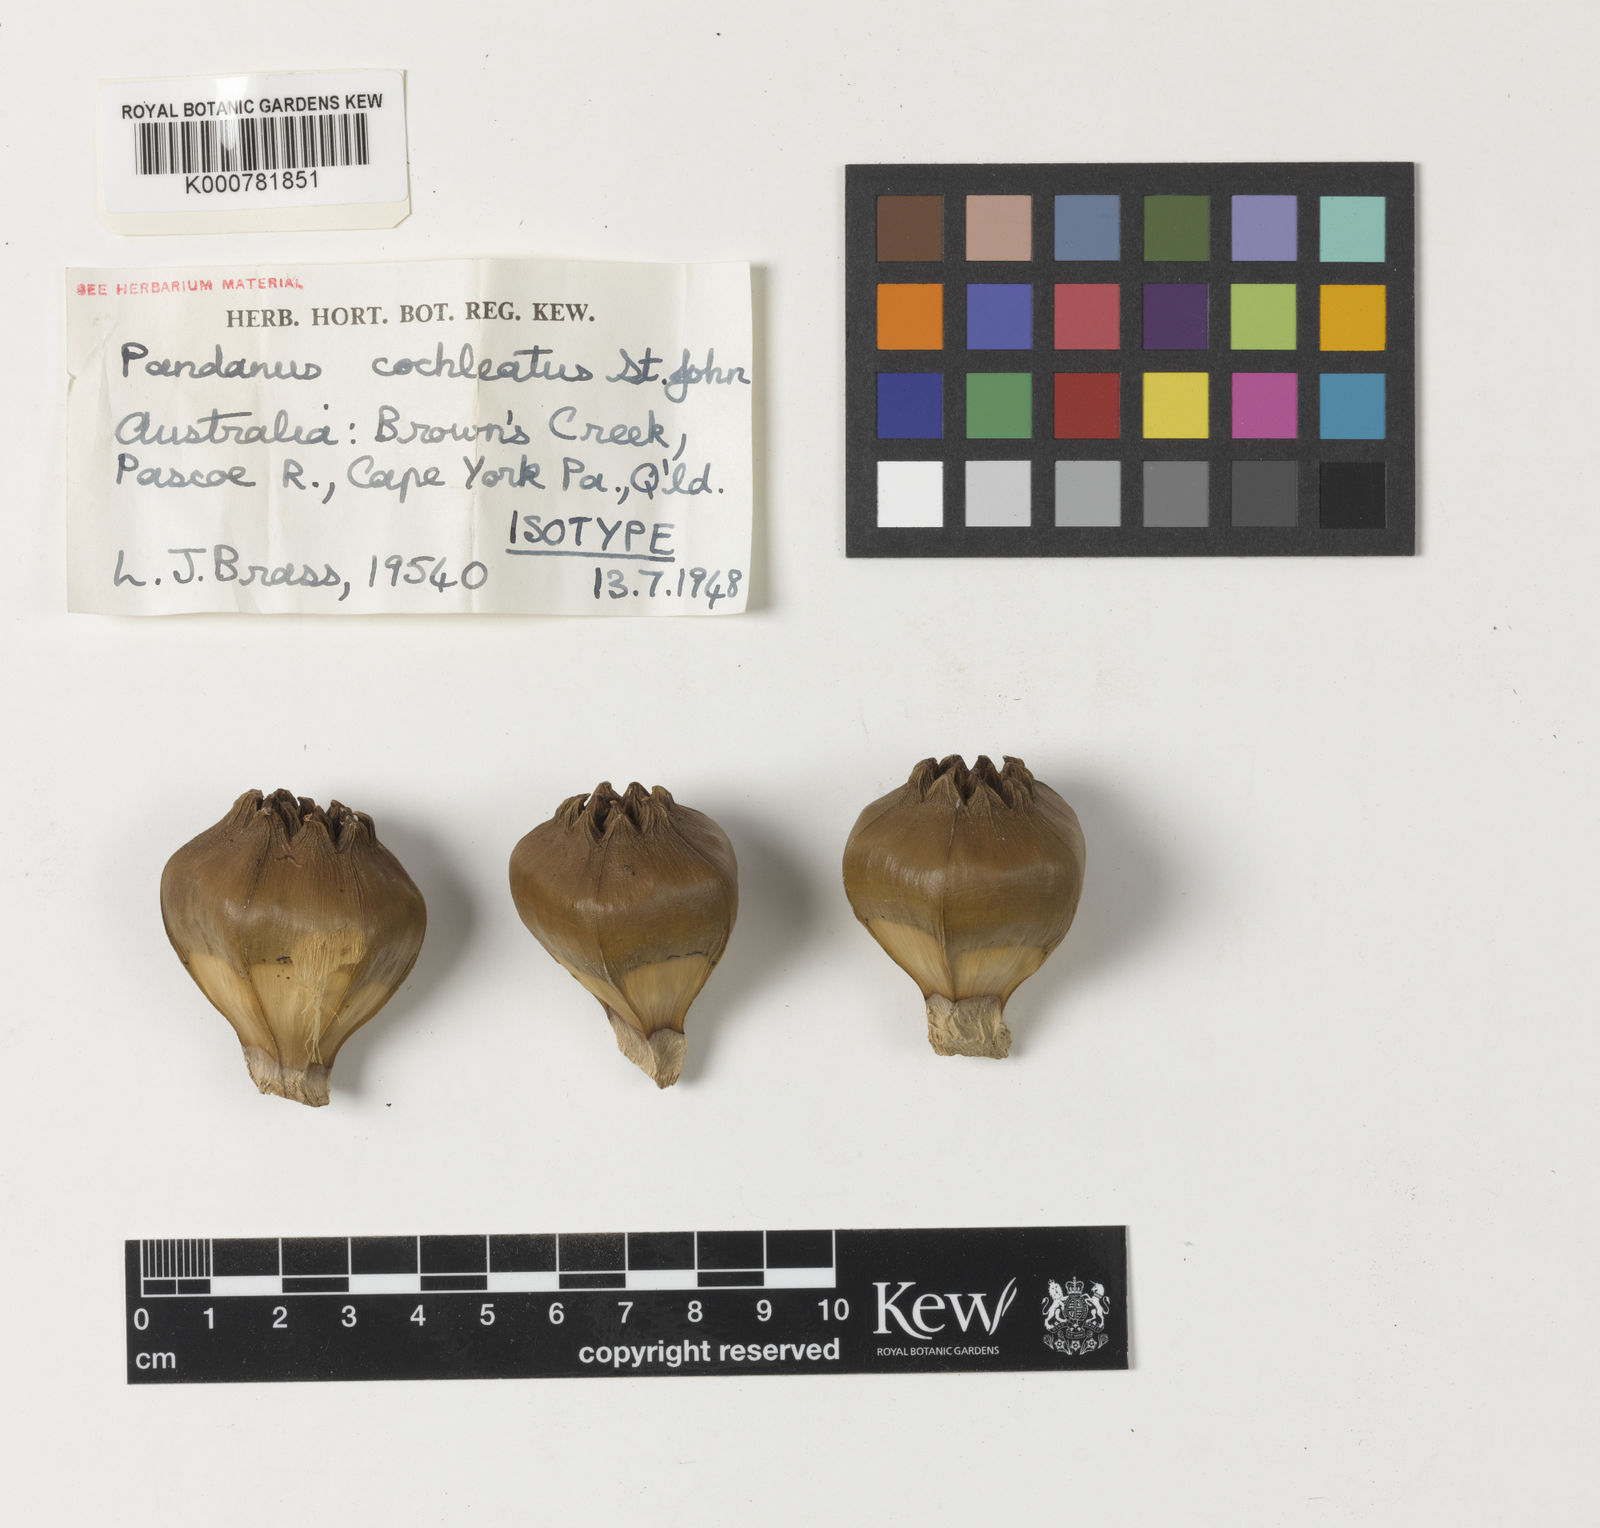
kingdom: Plantae
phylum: Tracheophyta
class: Liliopsida
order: Pandanales
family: Pandanaceae
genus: Pandanus
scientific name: Pandanus conicus
